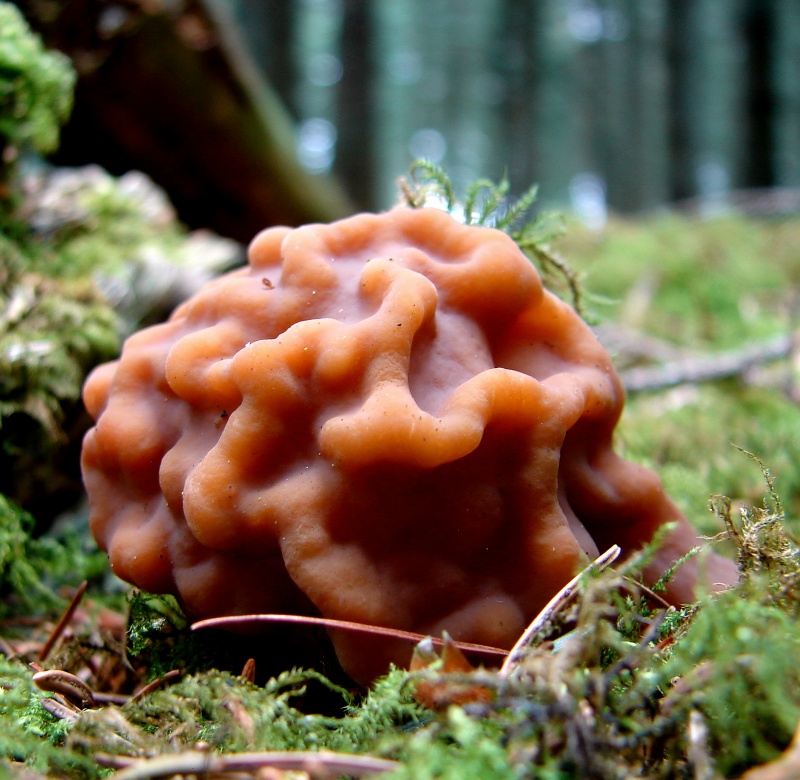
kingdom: Fungi
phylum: Ascomycota
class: Pezizomycetes
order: Pezizales
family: Discinaceae
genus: Gyromitra
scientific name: Gyromitra esculenta
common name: ægte stenmorkel
